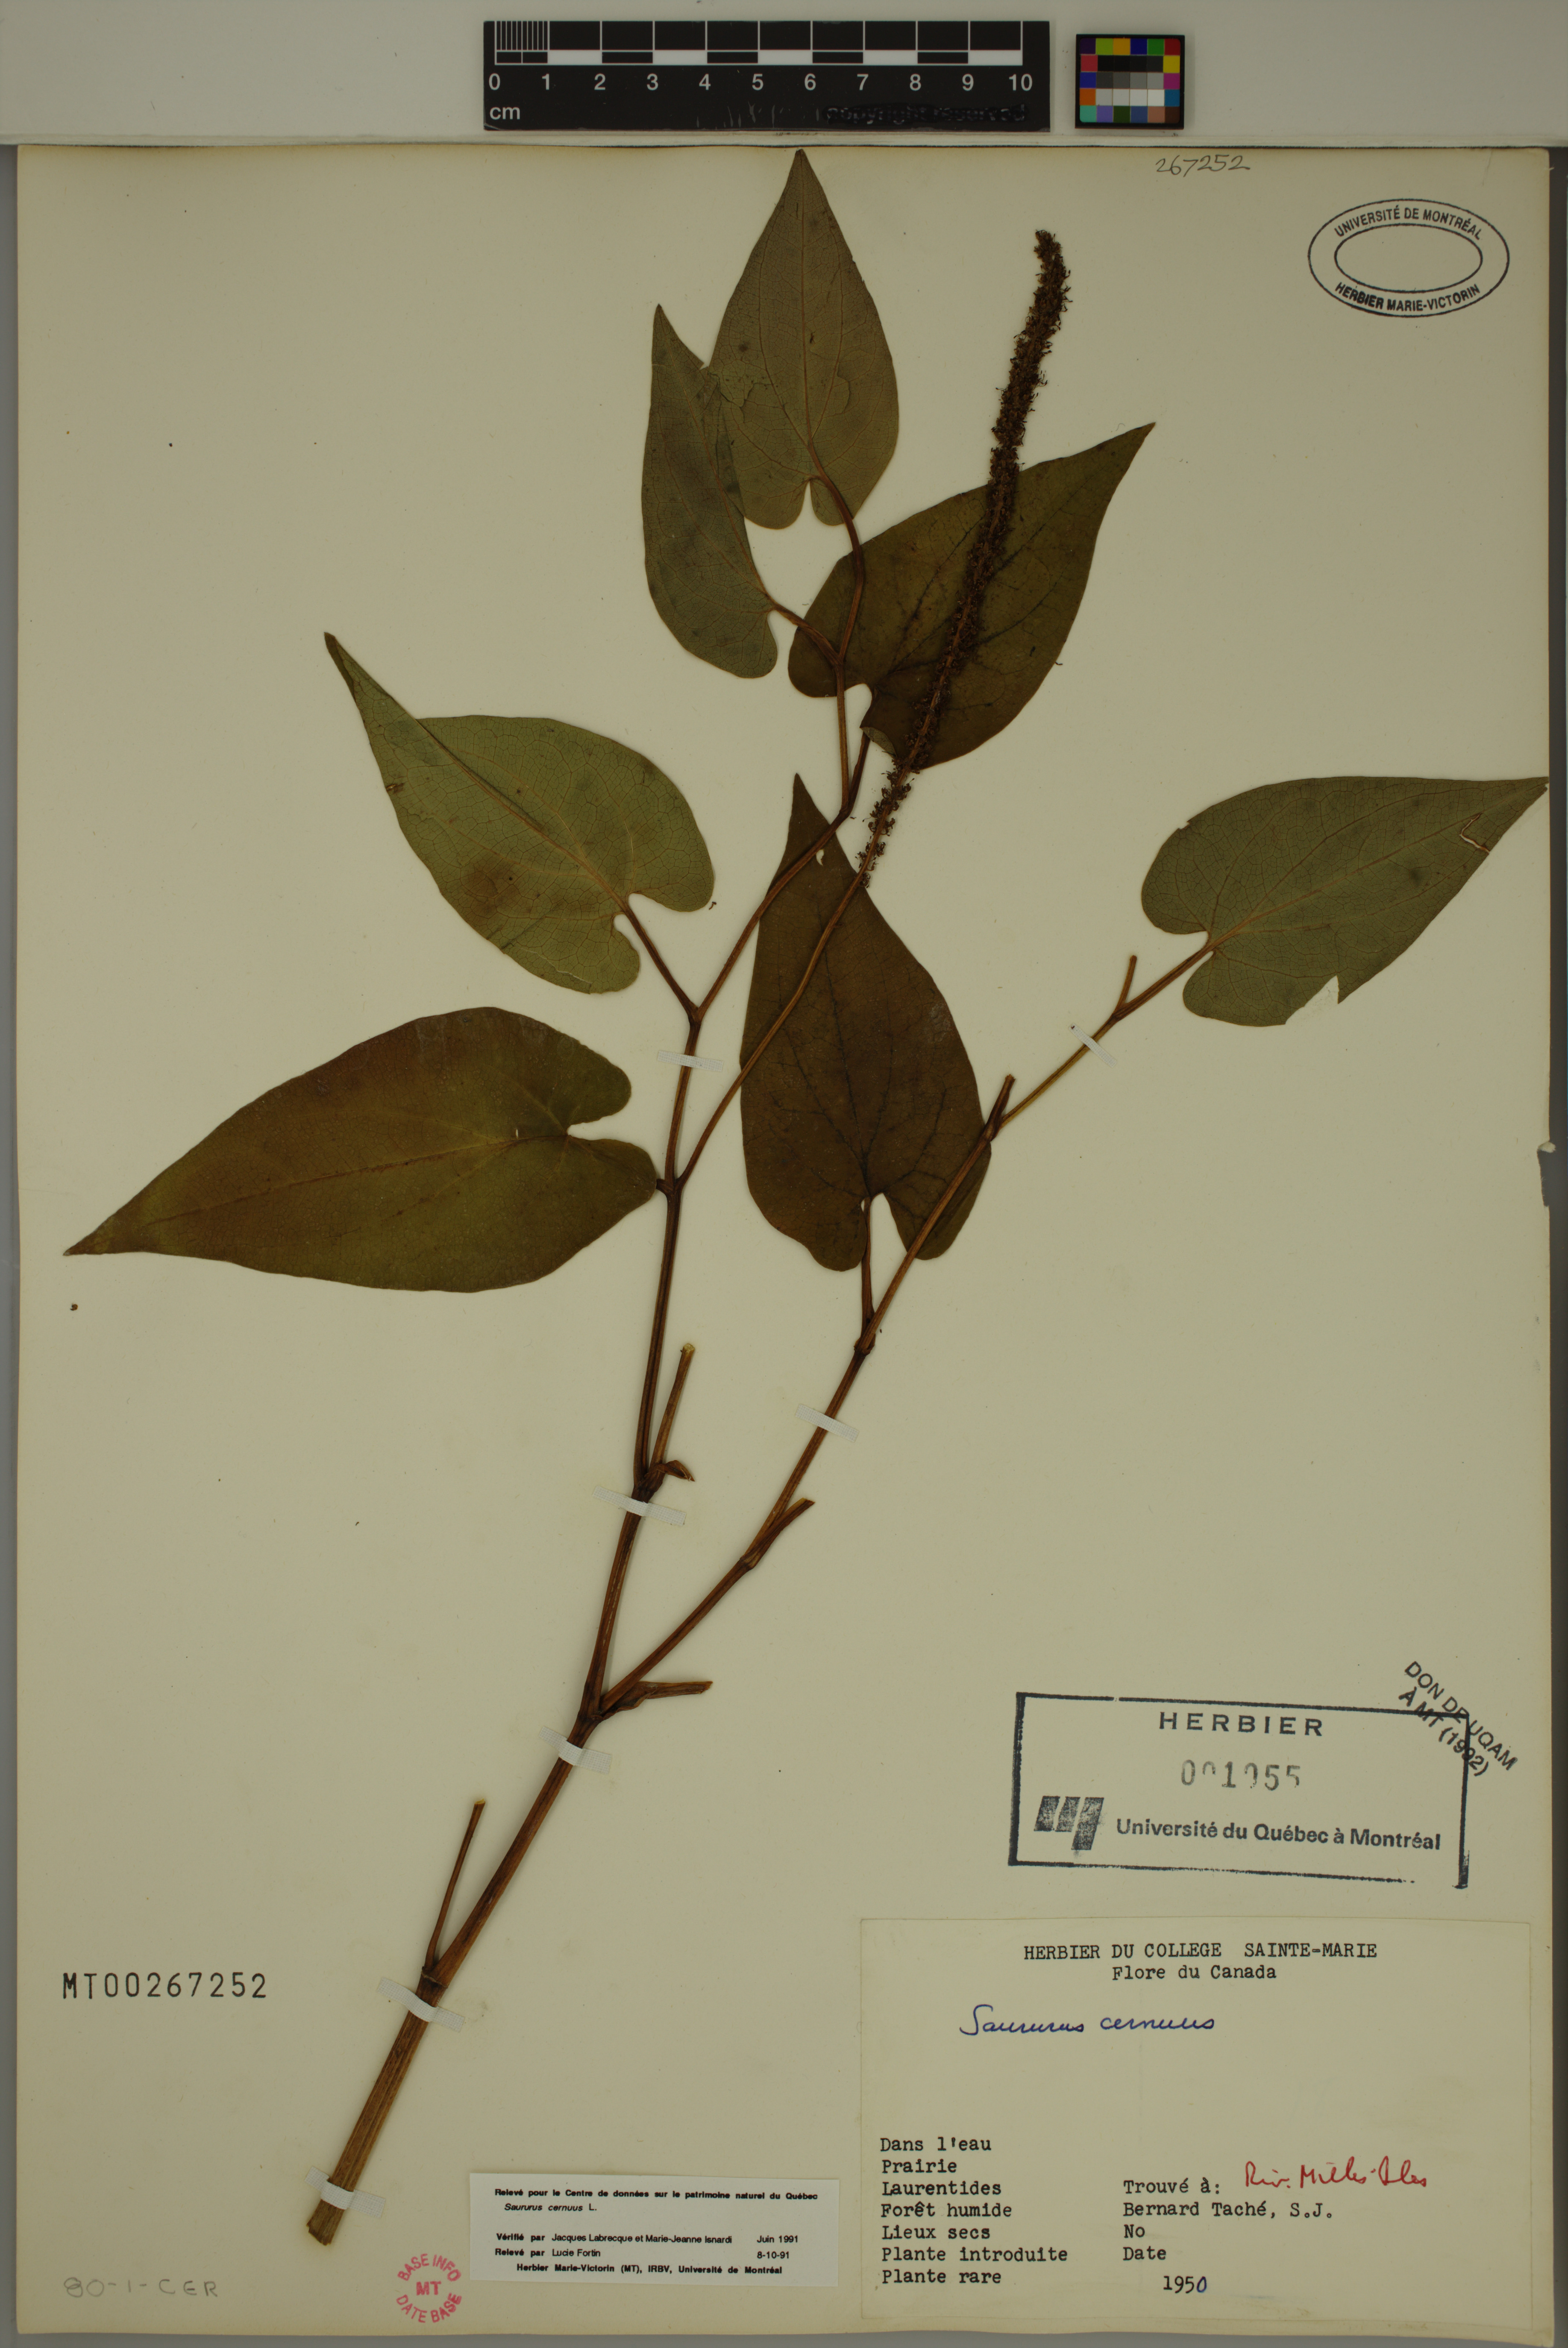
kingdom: Plantae
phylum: Tracheophyta
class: Magnoliopsida
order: Piperales
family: Saururaceae
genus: Saururus
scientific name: Saururus cernuus
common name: Lizard's-tail
